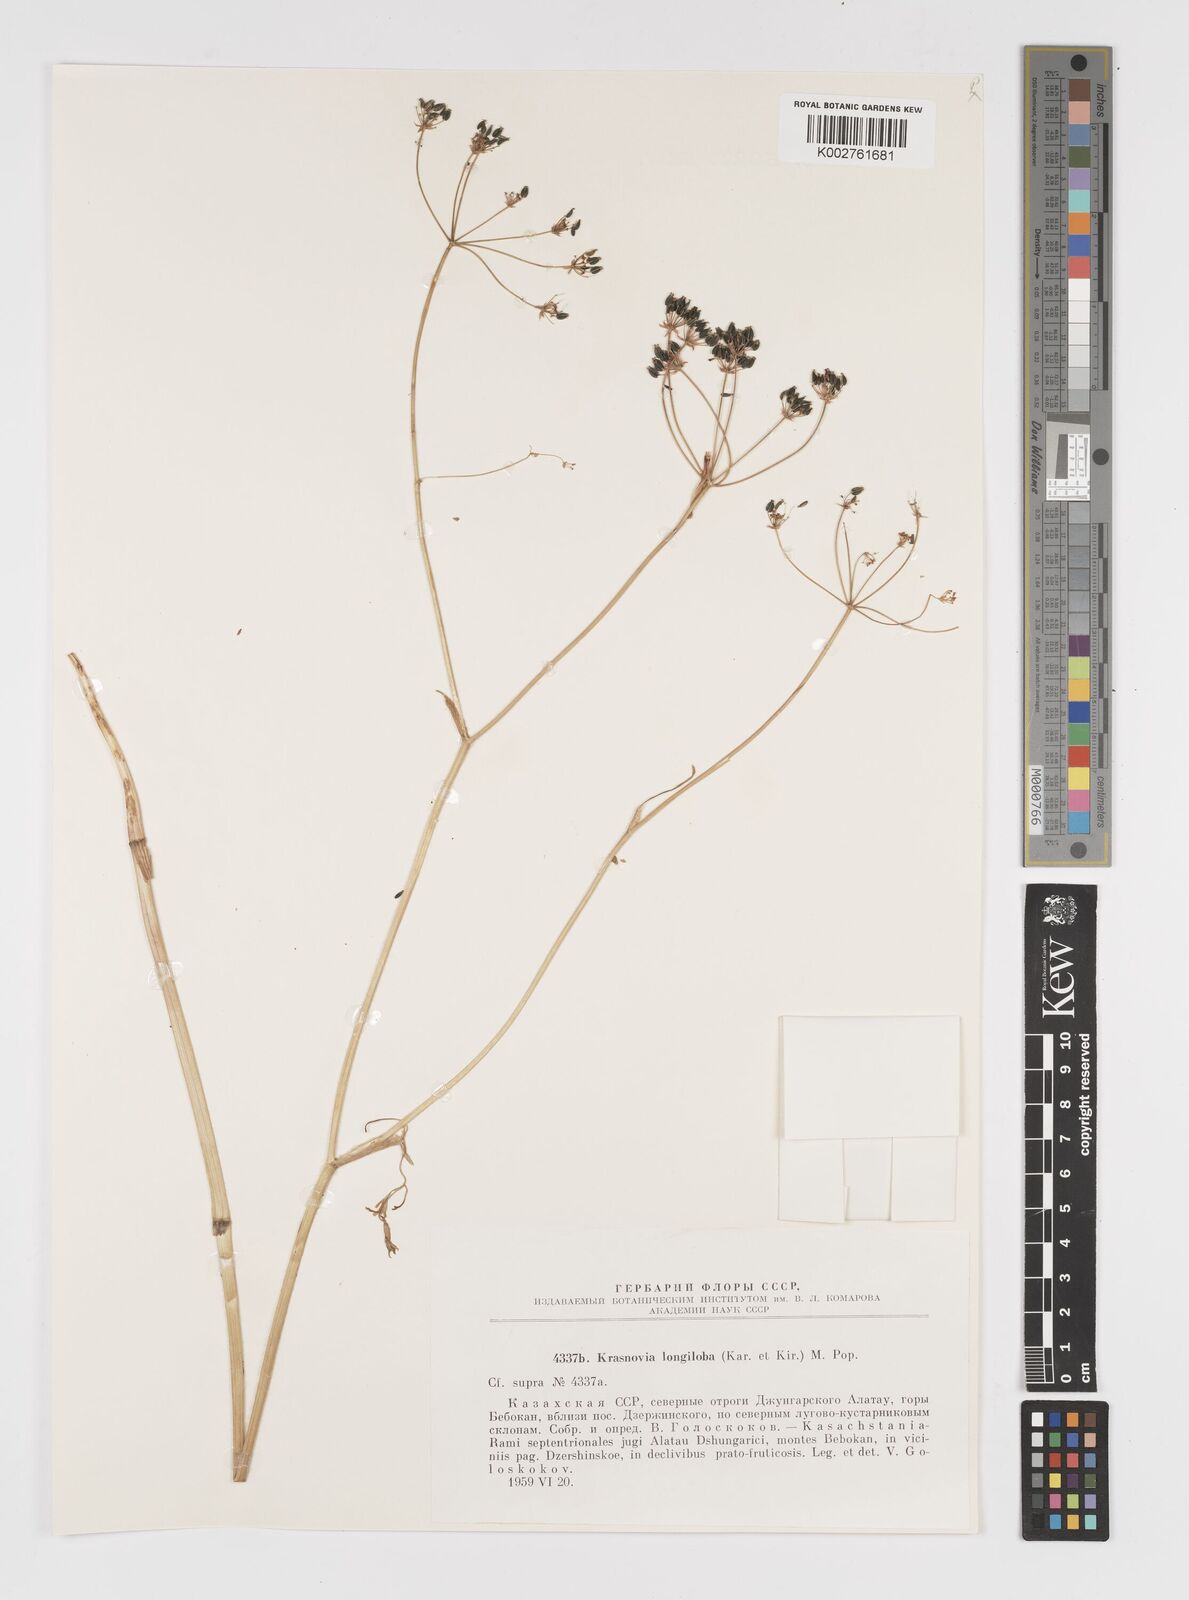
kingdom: Plantae
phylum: Tracheophyta
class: Magnoliopsida
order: Apiales
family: Apiaceae
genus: Kozlovia
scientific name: Kozlovia longiloba
